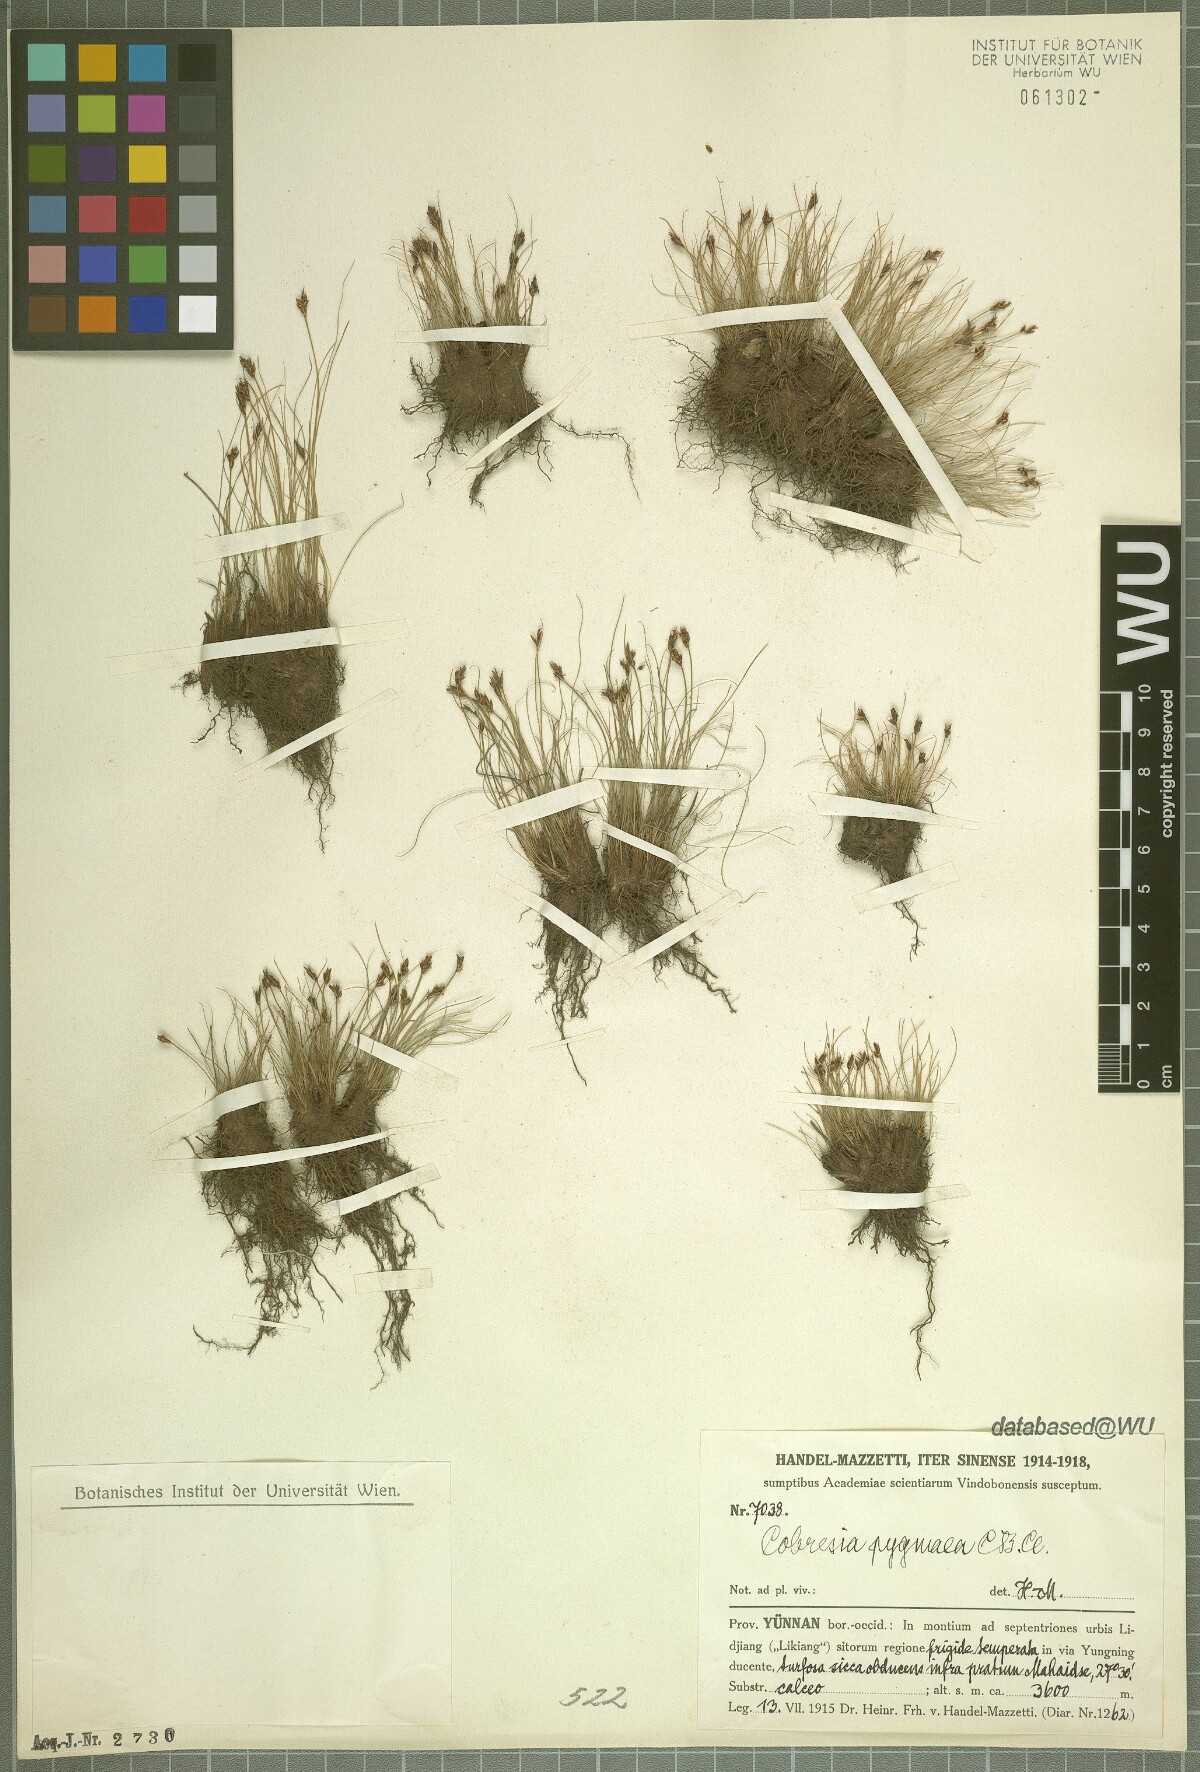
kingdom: Plantae
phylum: Tracheophyta
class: Liliopsida
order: Poales
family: Cyperaceae
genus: Carex
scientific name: Carex parvula
